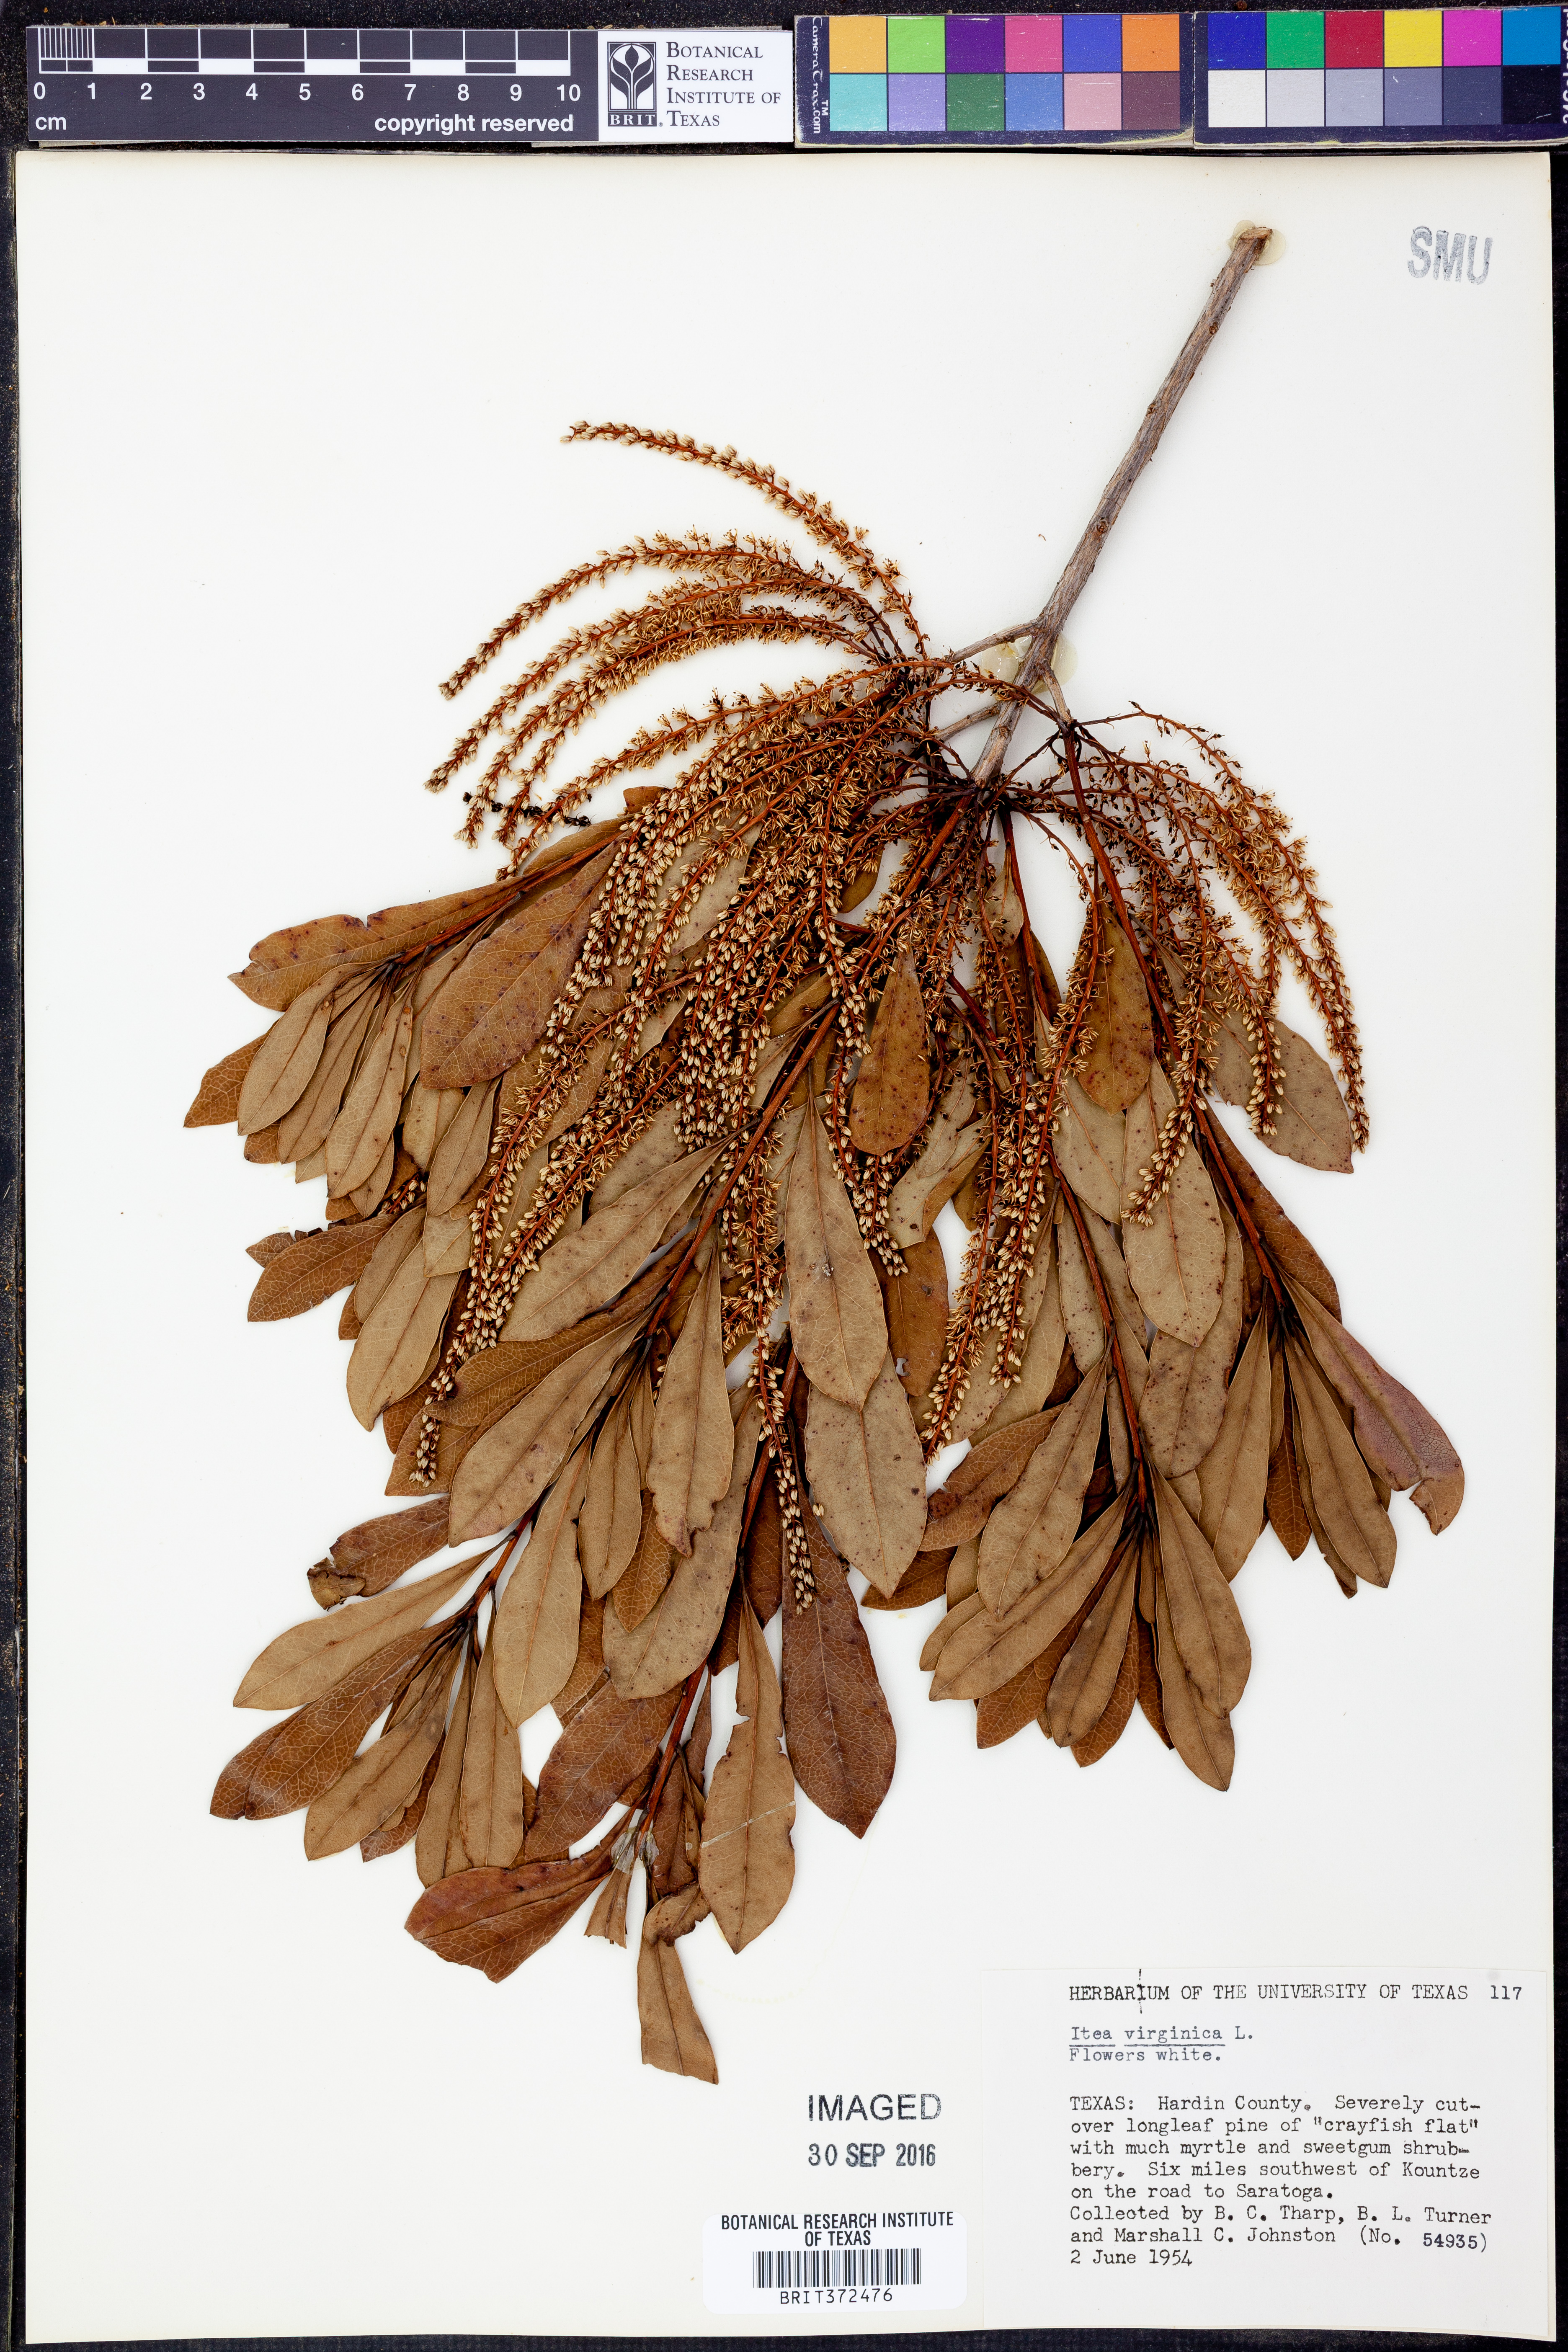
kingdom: Plantae
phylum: Tracheophyta
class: Magnoliopsida
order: Saxifragales
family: Iteaceae
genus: Itea
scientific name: Itea virginica
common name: Sweetspire
